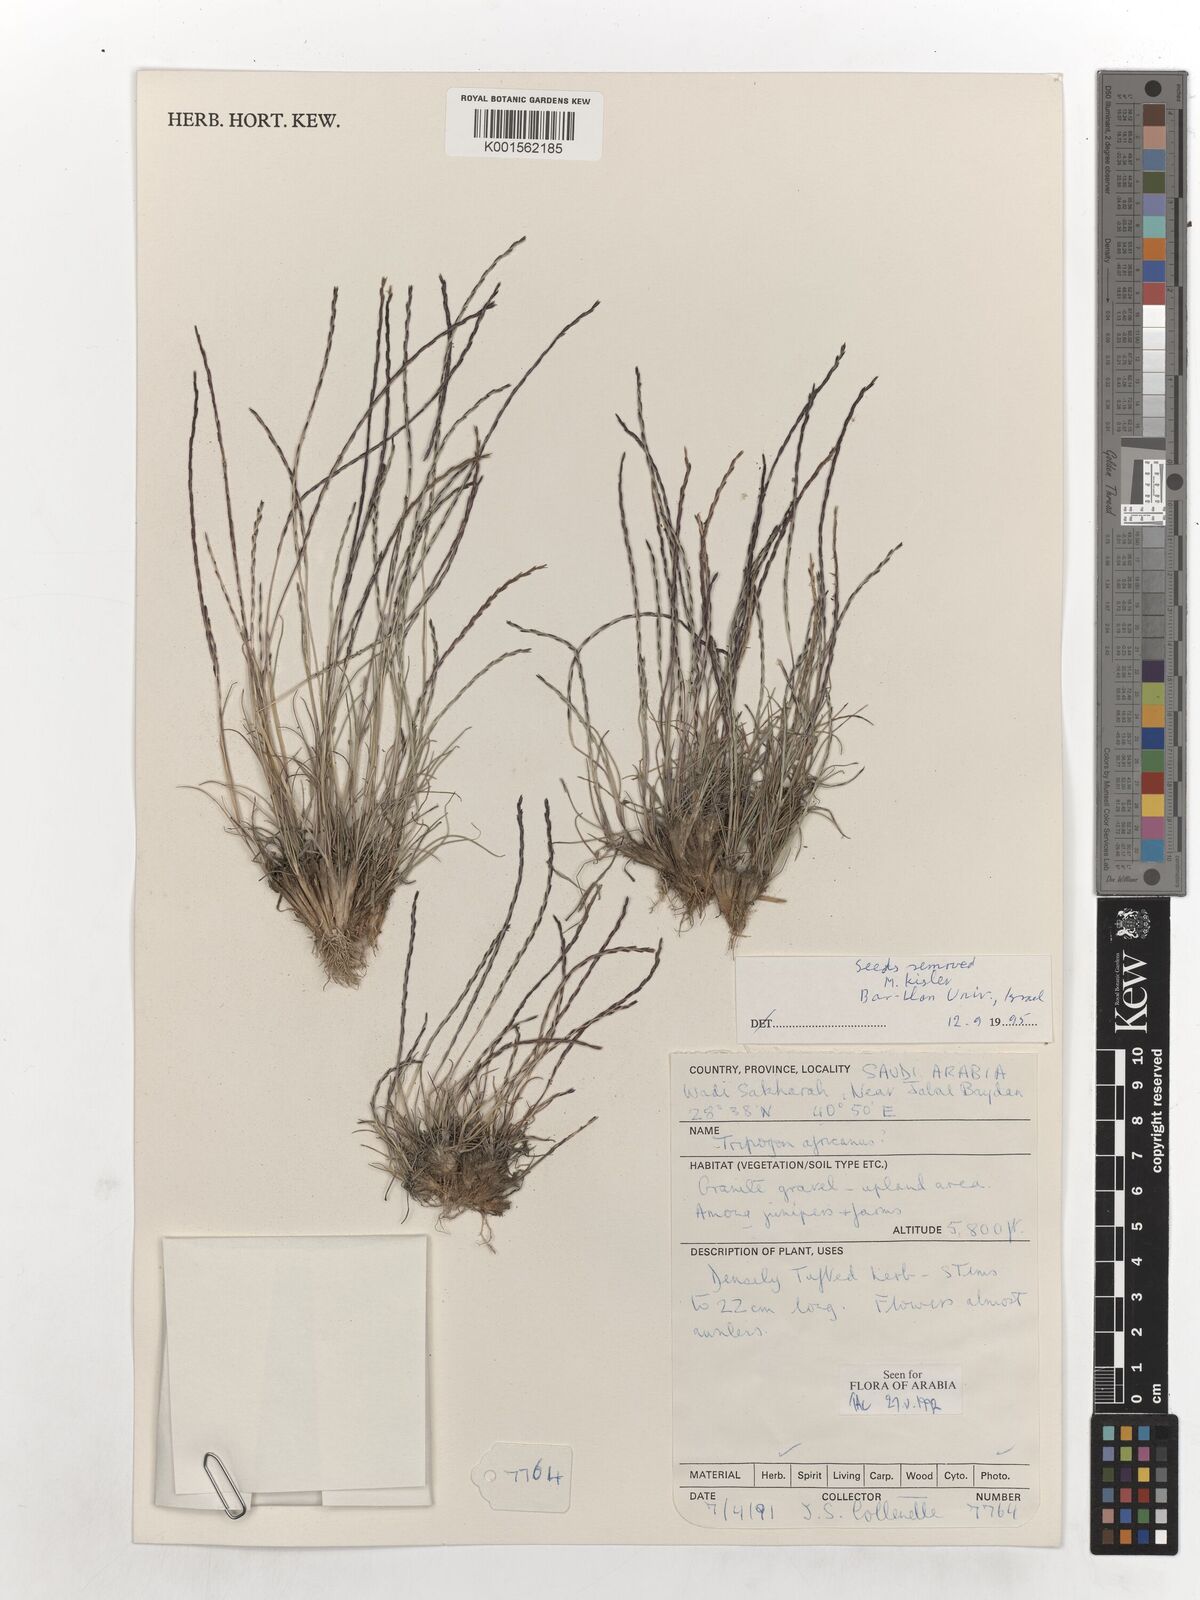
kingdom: Plantae
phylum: Tracheophyta
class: Liliopsida
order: Poales
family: Poaceae
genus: Tripogon
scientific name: Tripogon africanus
